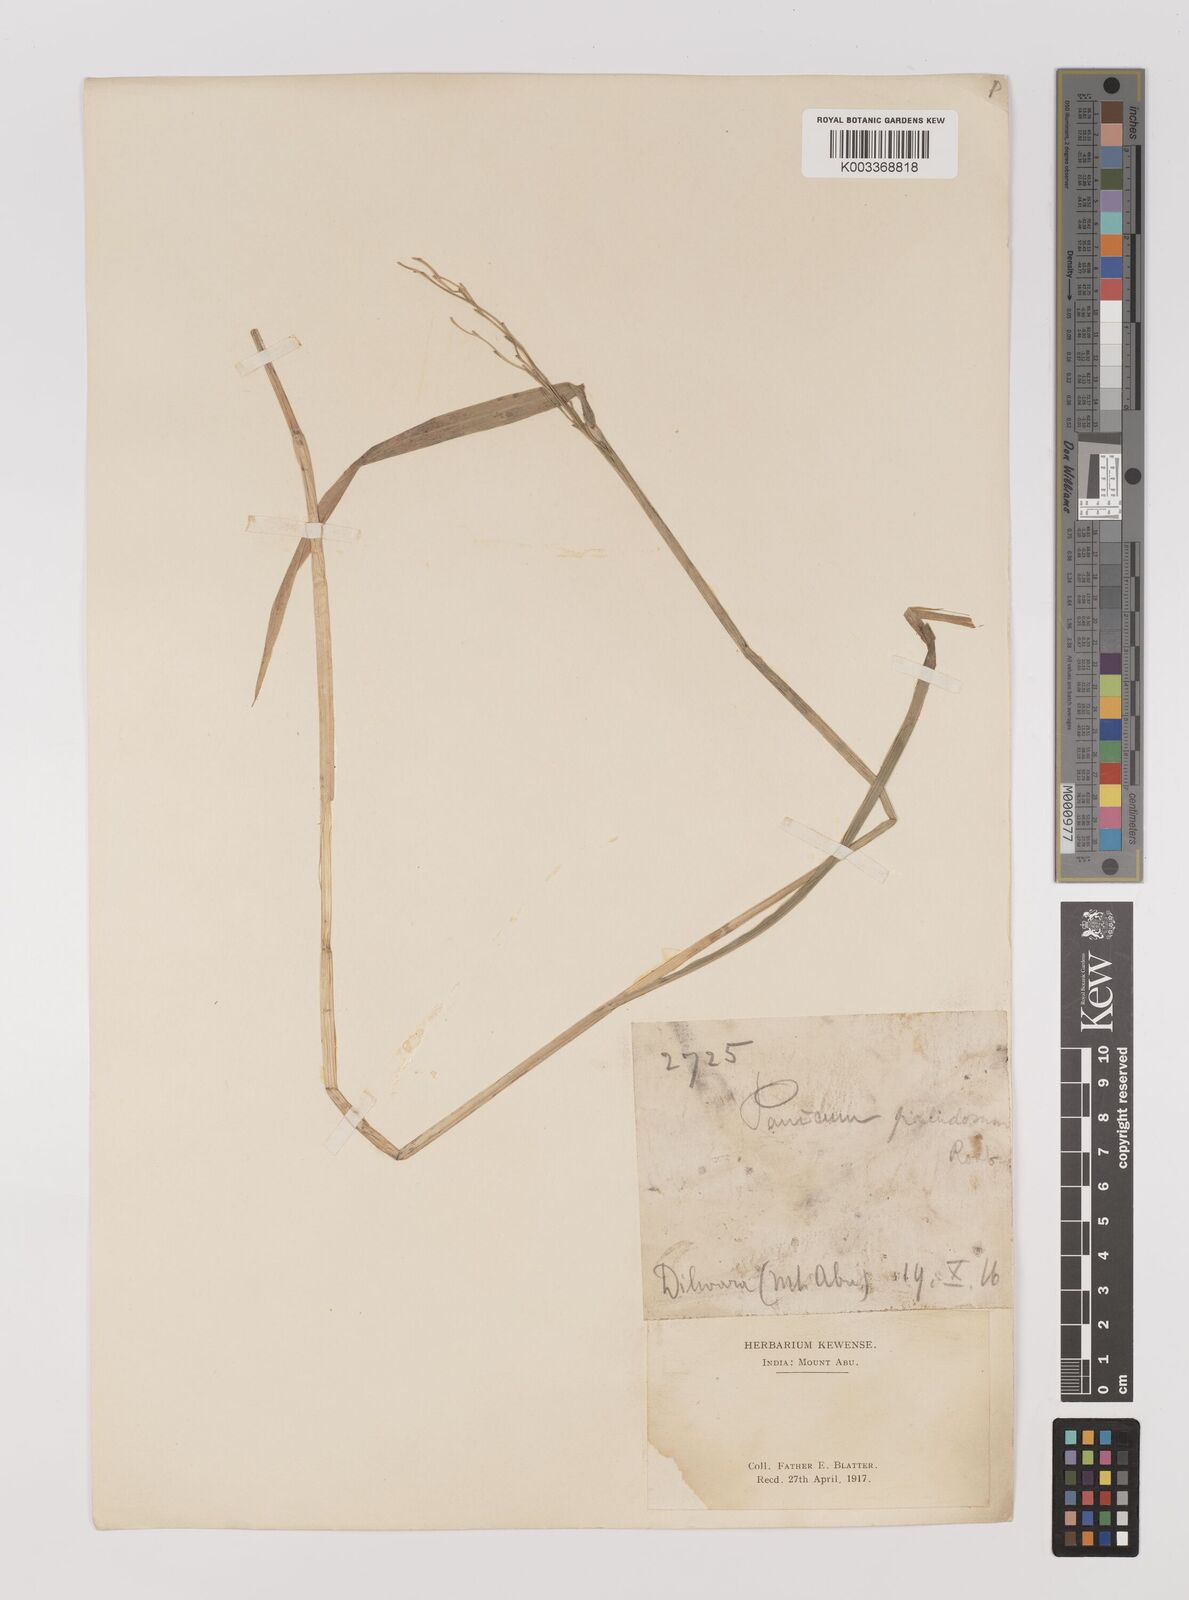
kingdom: Plantae
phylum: Tracheophyta
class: Liliopsida
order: Poales
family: Poaceae
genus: Louisiella
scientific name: Louisiella paludosa
